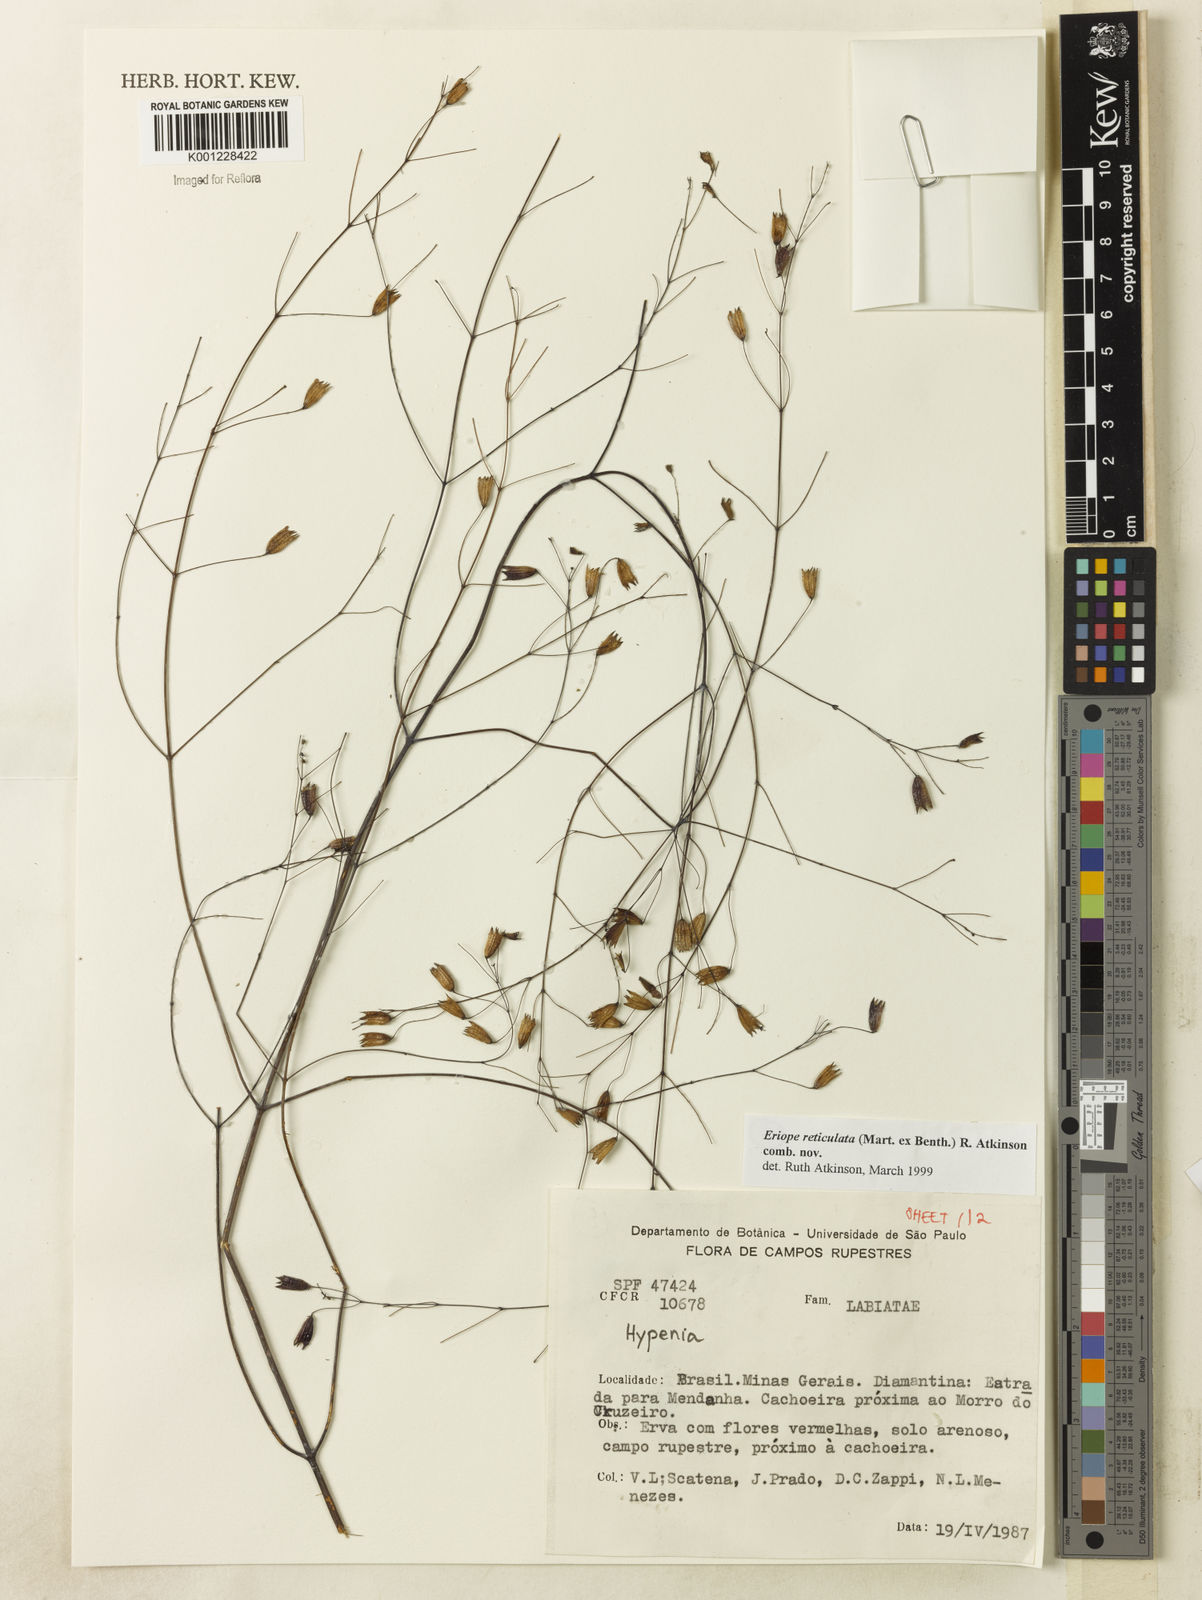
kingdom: Plantae
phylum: Tracheophyta
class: Magnoliopsida
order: Lamiales
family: Lamiaceae
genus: Hypenia
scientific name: Hypenia reticulata
